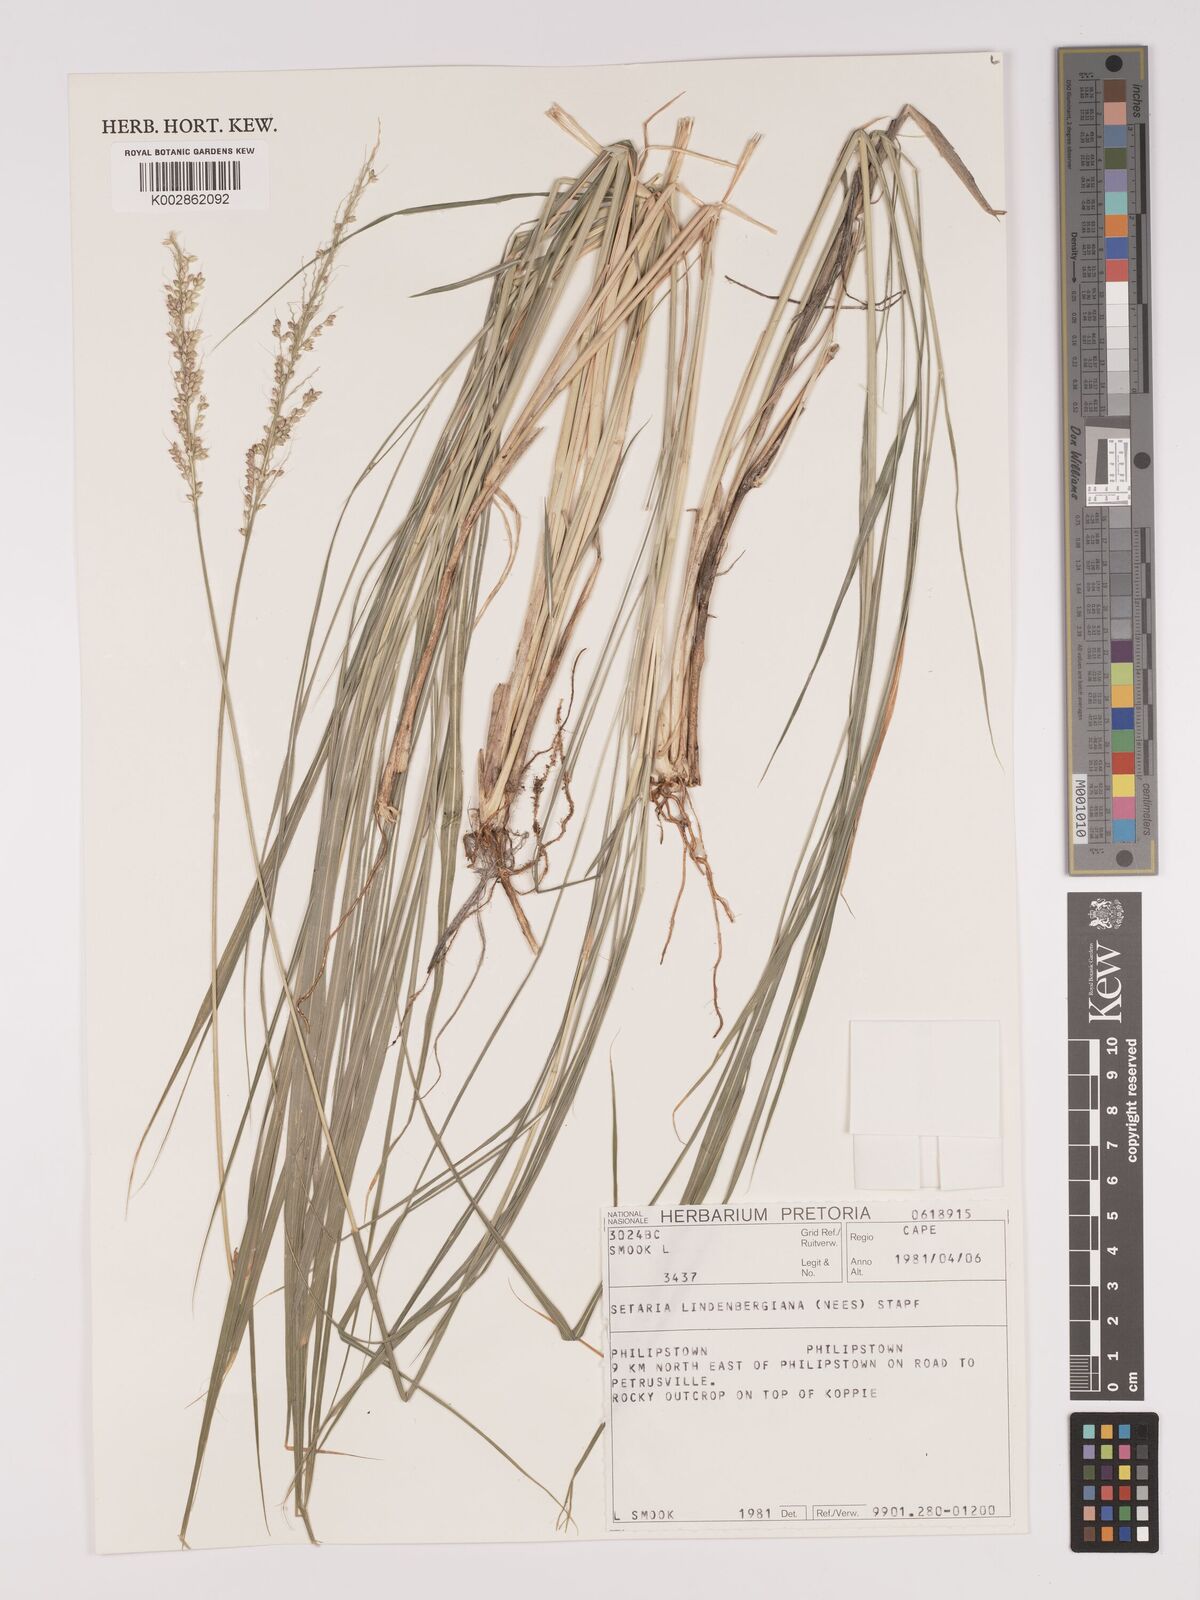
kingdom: Plantae
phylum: Tracheophyta
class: Liliopsida
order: Poales
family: Poaceae
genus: Setaria
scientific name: Setaria lindenbergiana
